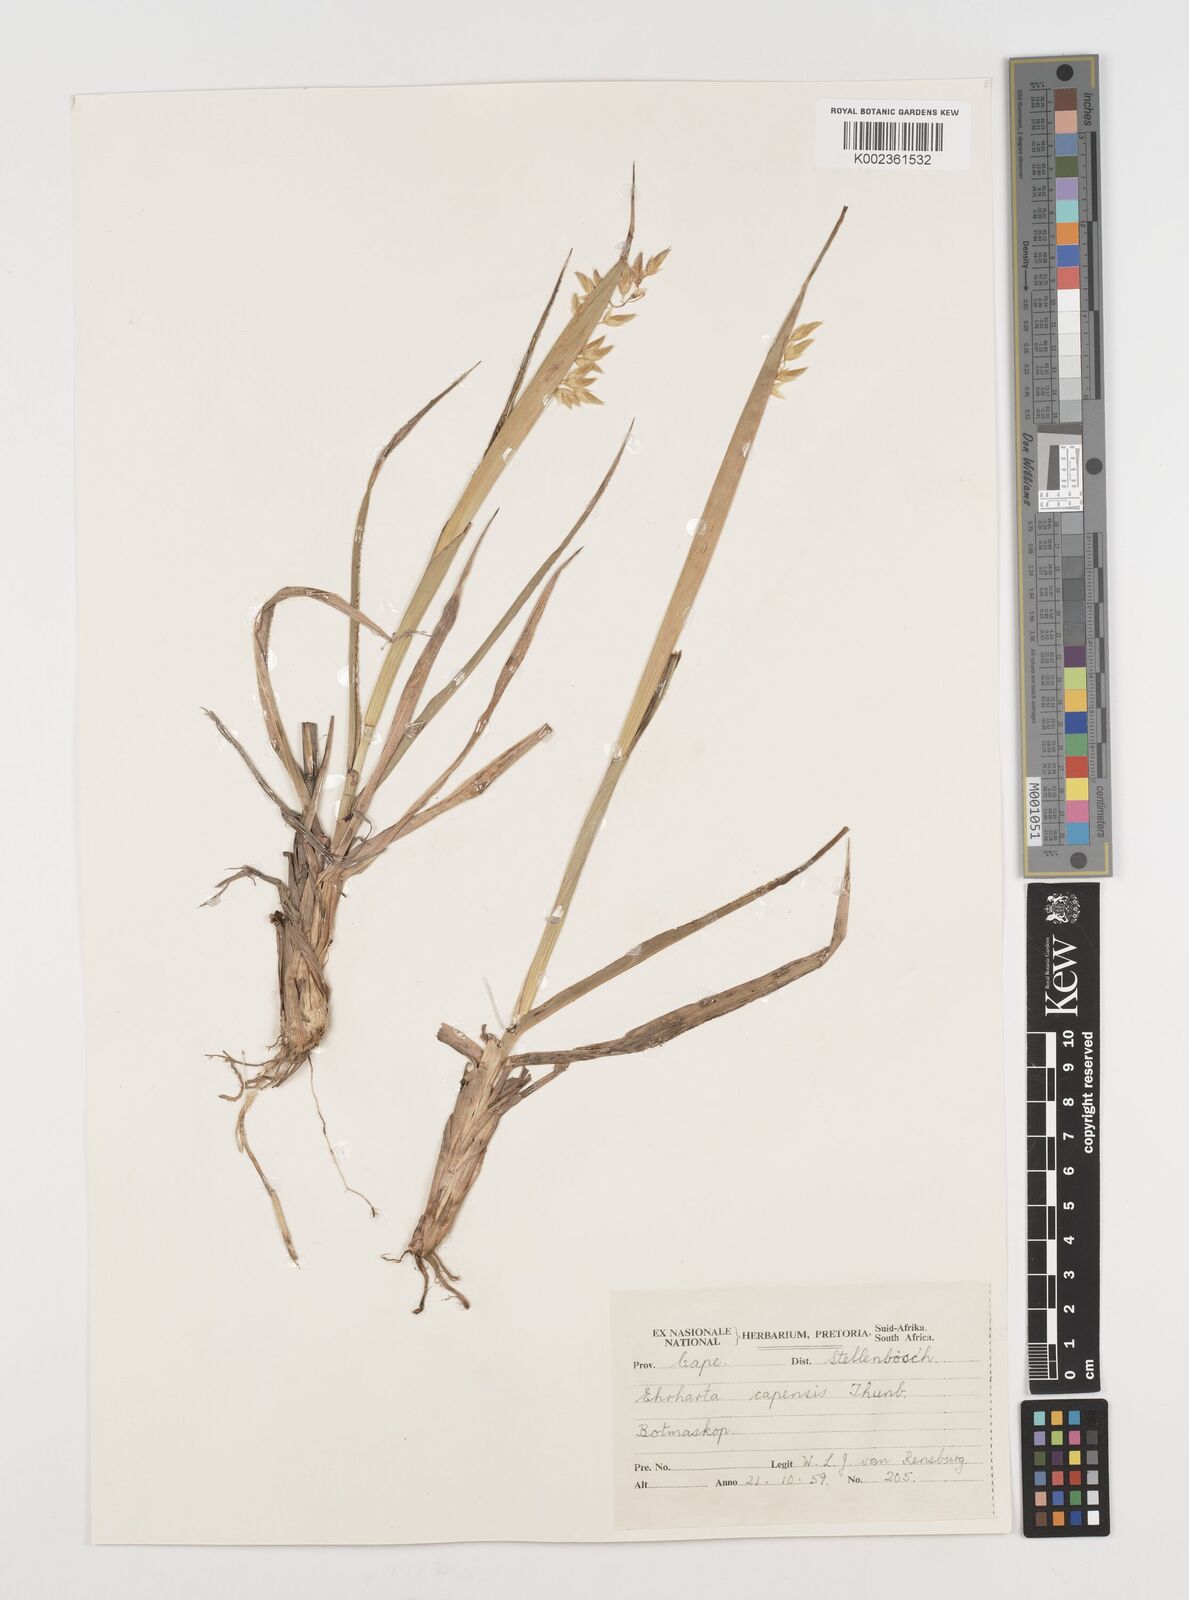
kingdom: Plantae
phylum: Tracheophyta
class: Liliopsida
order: Poales
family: Poaceae
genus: Ehrharta
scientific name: Ehrharta capensis
